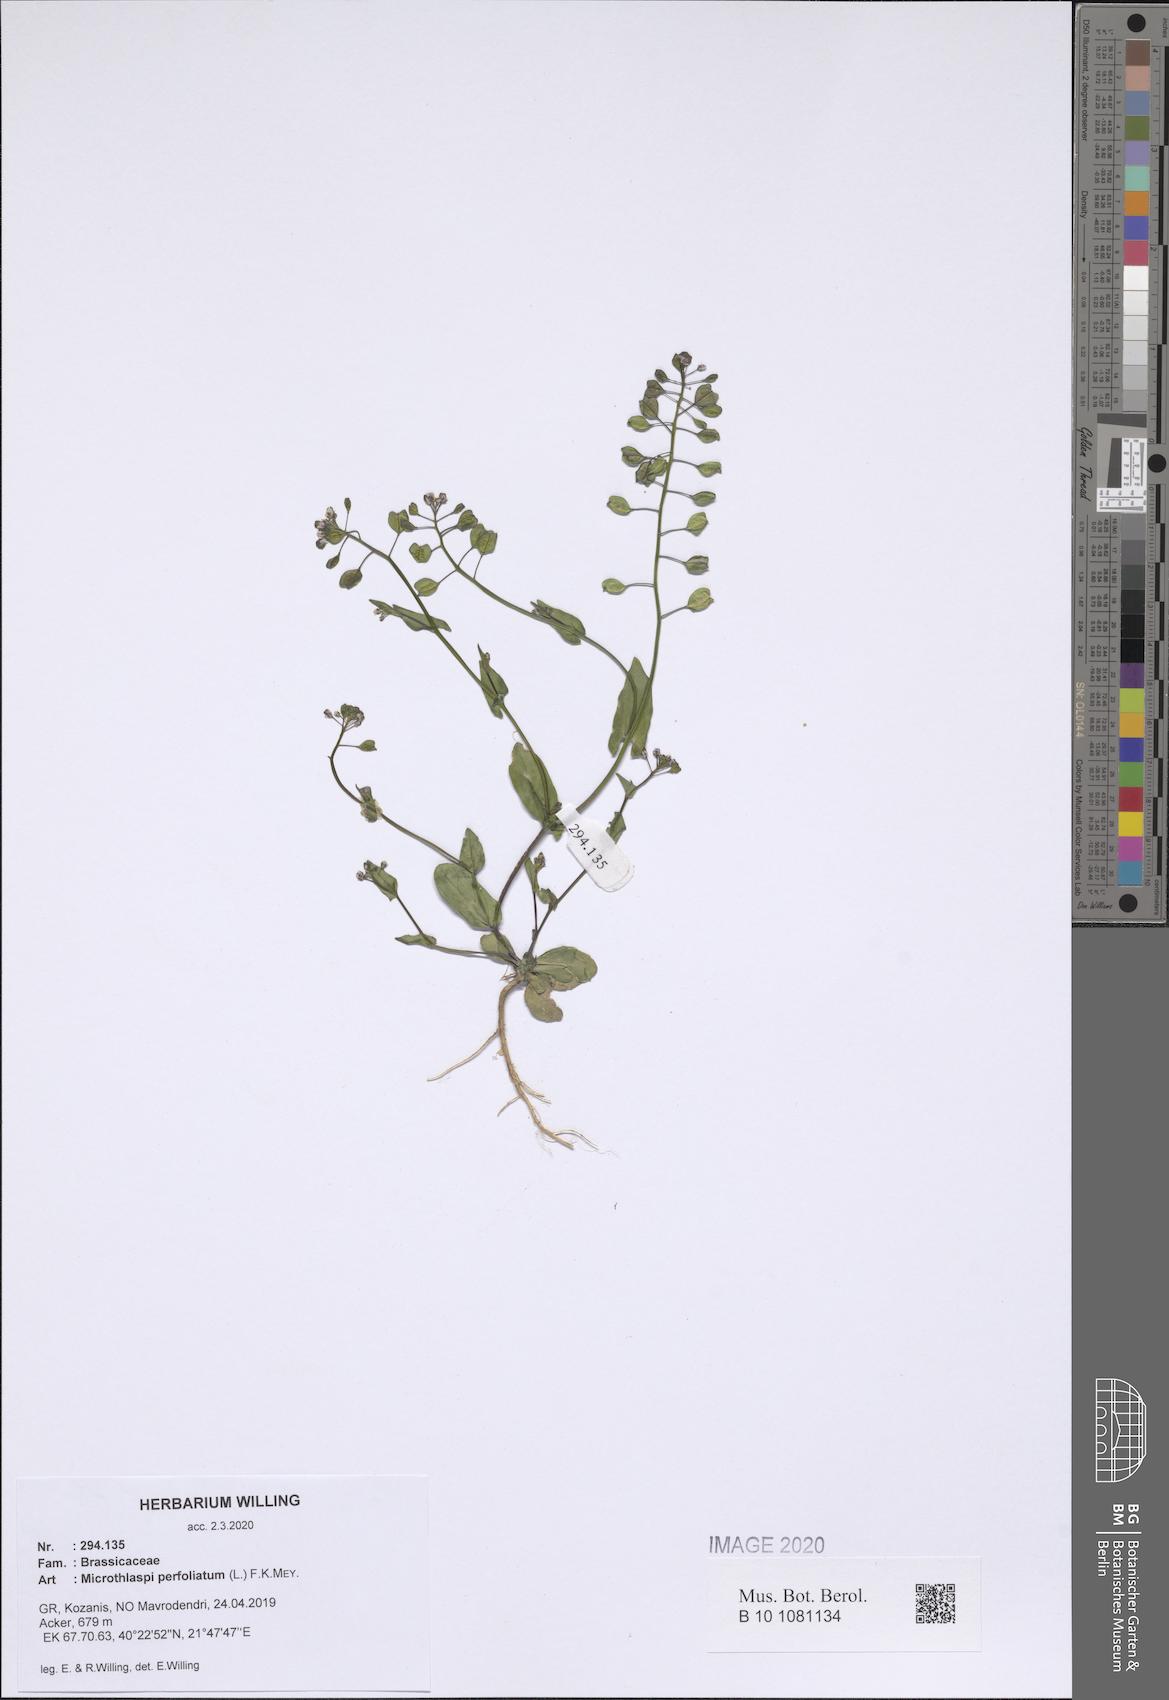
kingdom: Plantae
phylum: Tracheophyta
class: Magnoliopsida
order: Brassicales
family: Brassicaceae
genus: Noccaea
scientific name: Noccaea perfoliata
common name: Perfoliate pennycress
